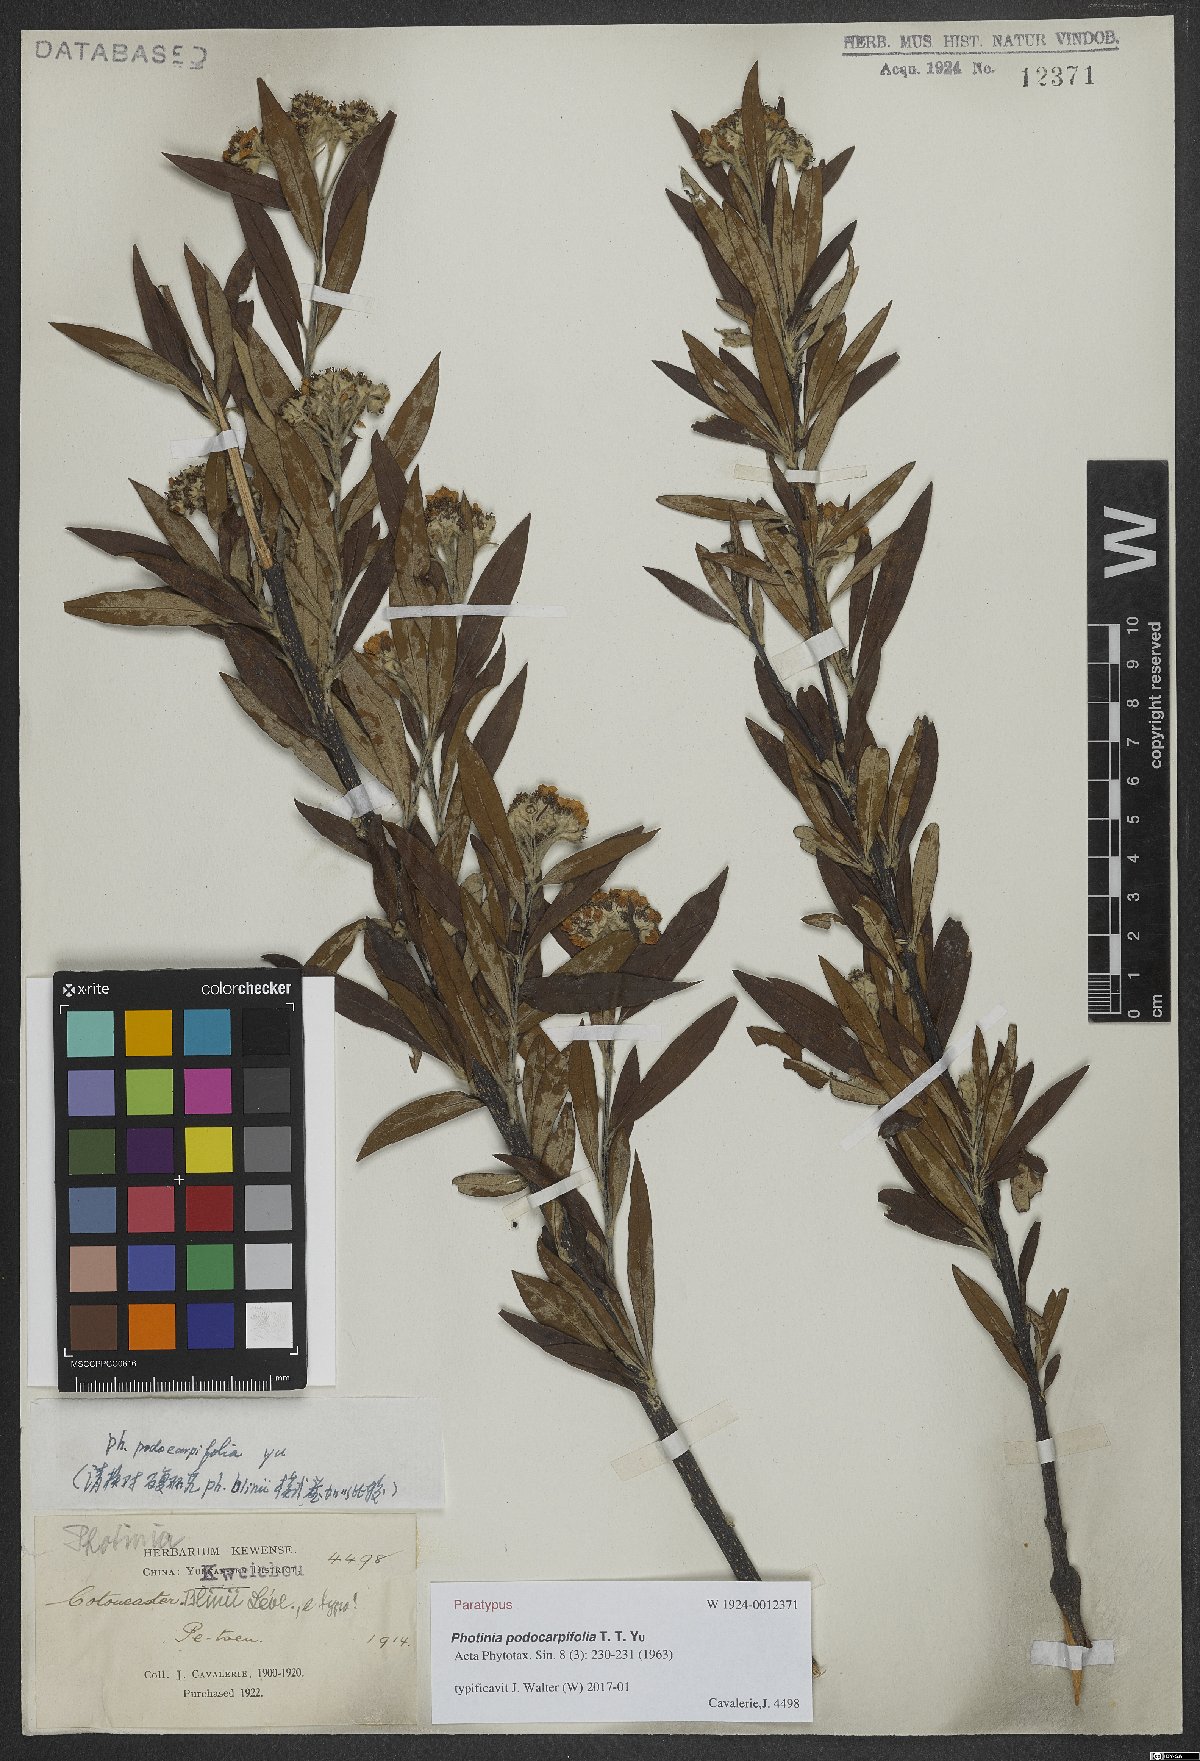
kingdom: Plantae
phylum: Tracheophyta
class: Magnoliopsida
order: Rosales
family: Rosaceae
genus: Pourthiaea
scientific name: Pourthiaea podocarpifolia
